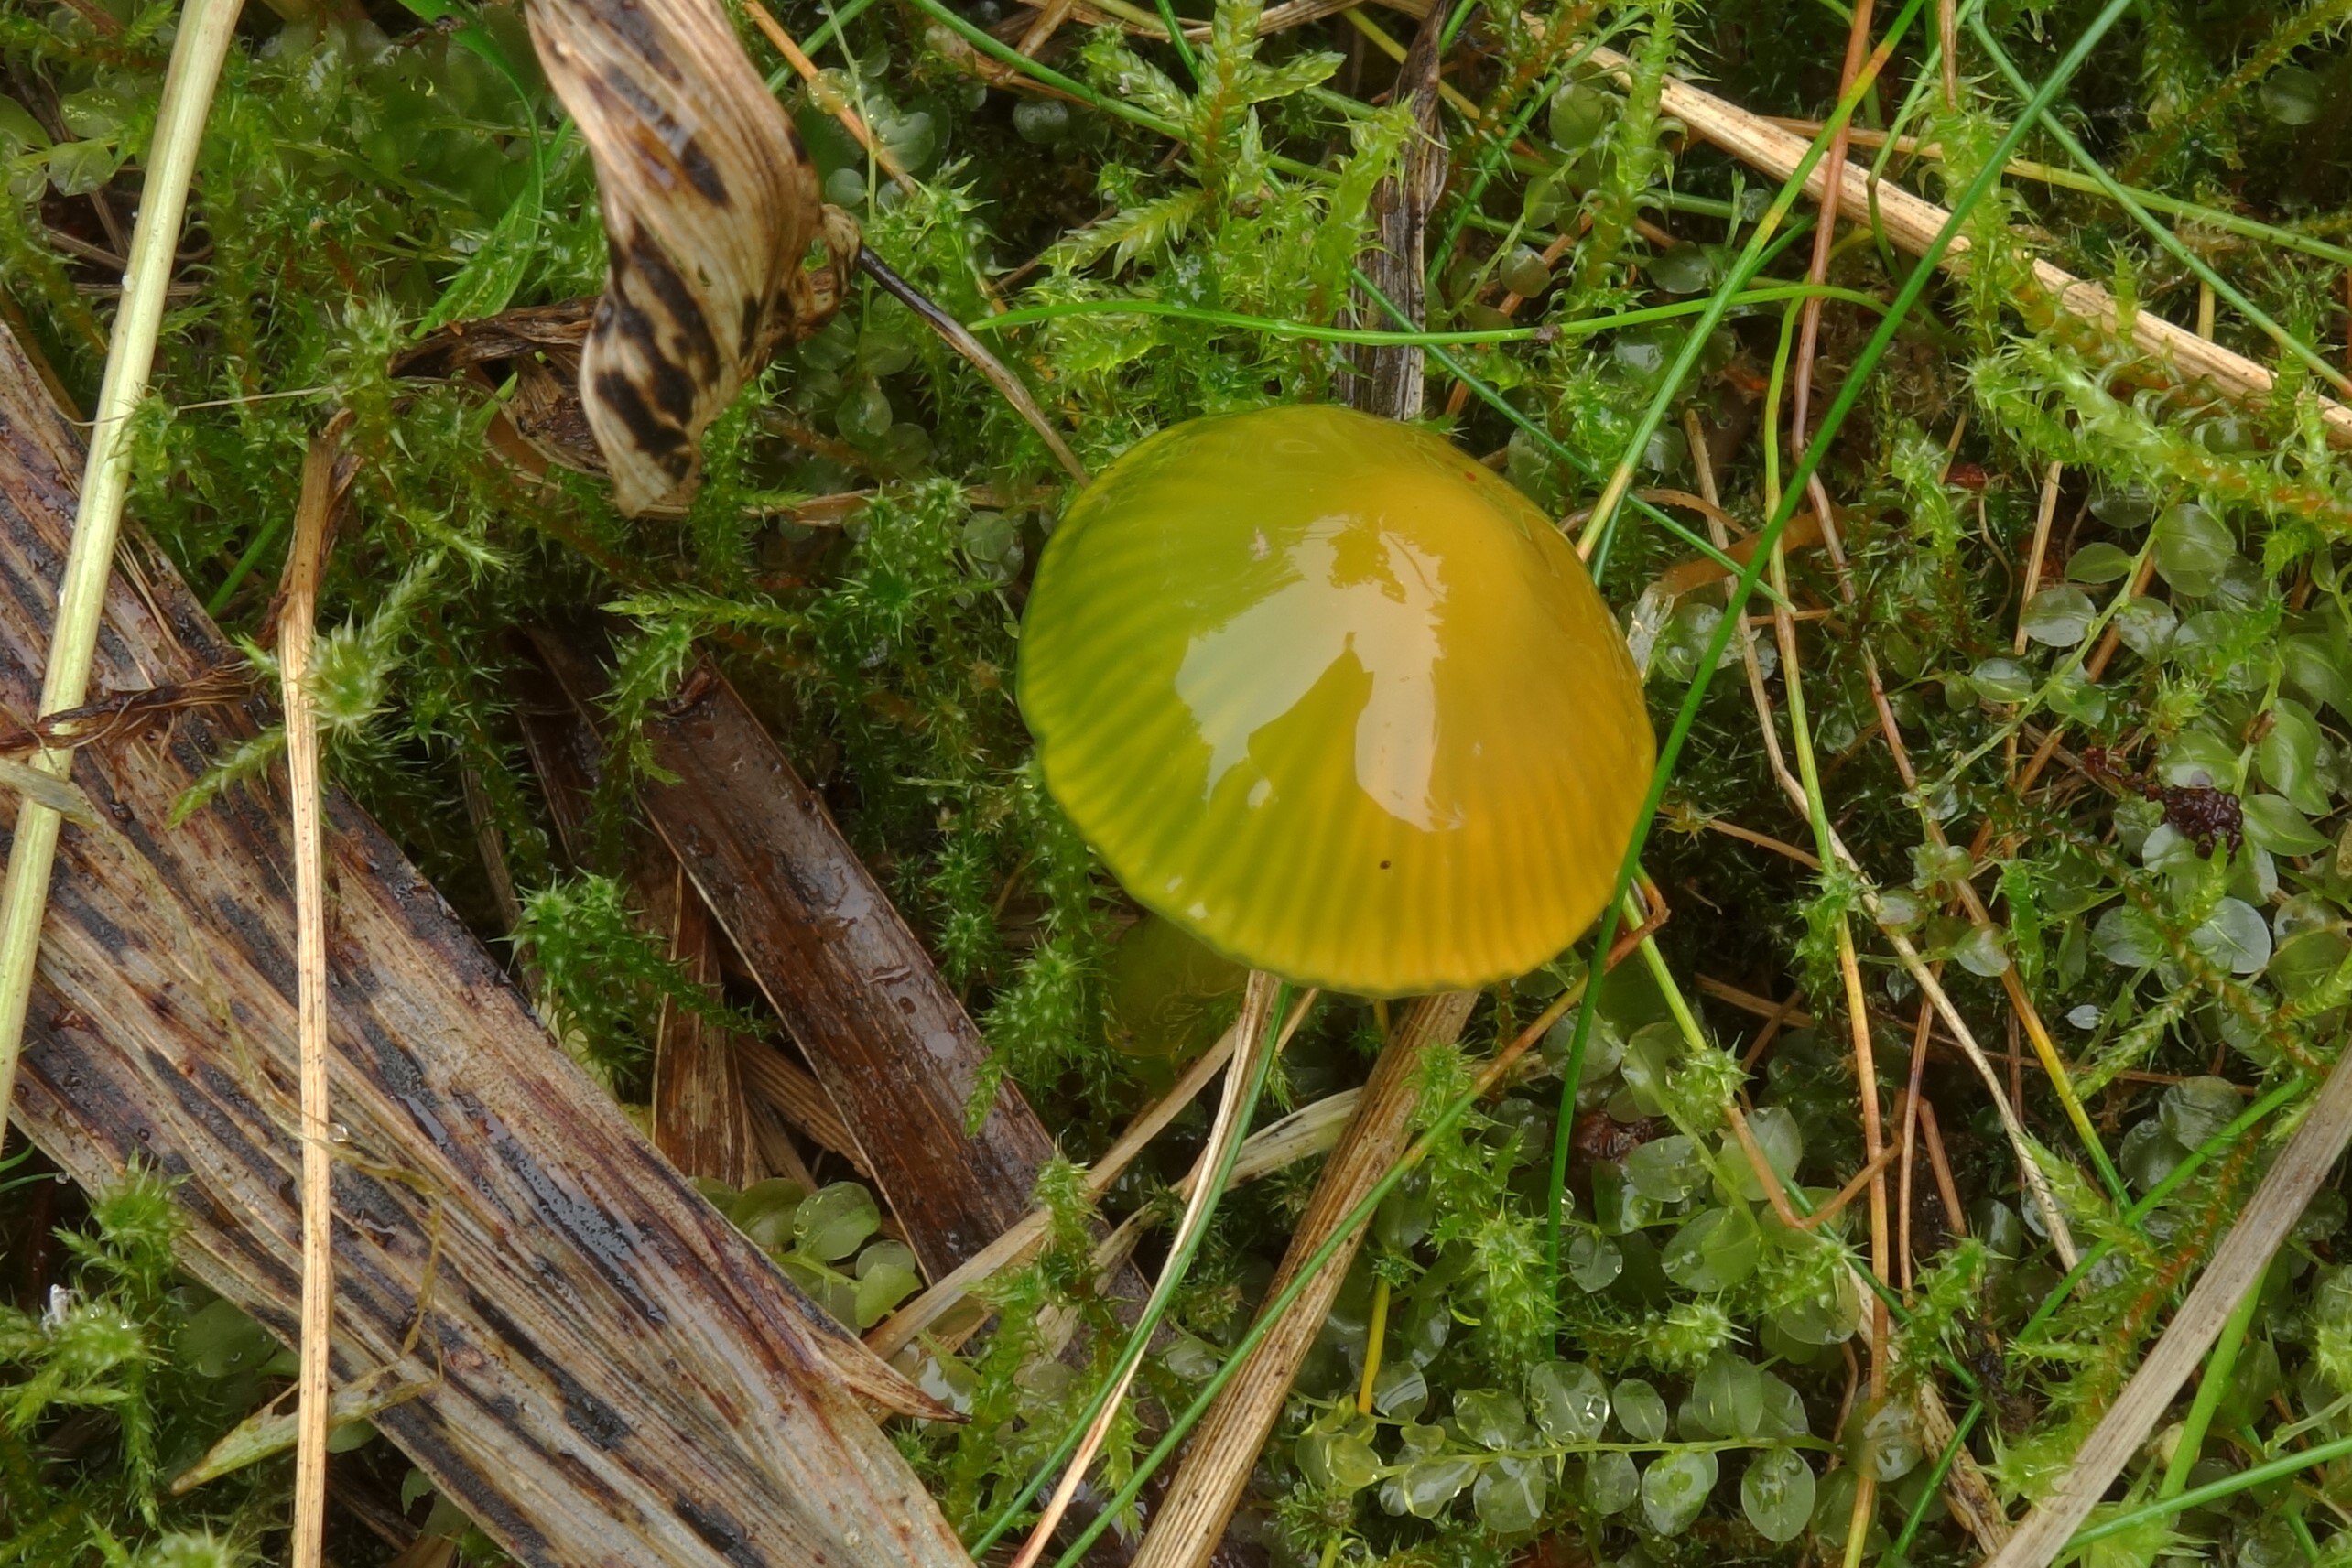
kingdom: Fungi
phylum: Basidiomycota
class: Agaricomycetes
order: Agaricales
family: Hygrophoraceae
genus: Gliophorus
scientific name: Gliophorus psittacinus
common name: Parrot wax-cap
